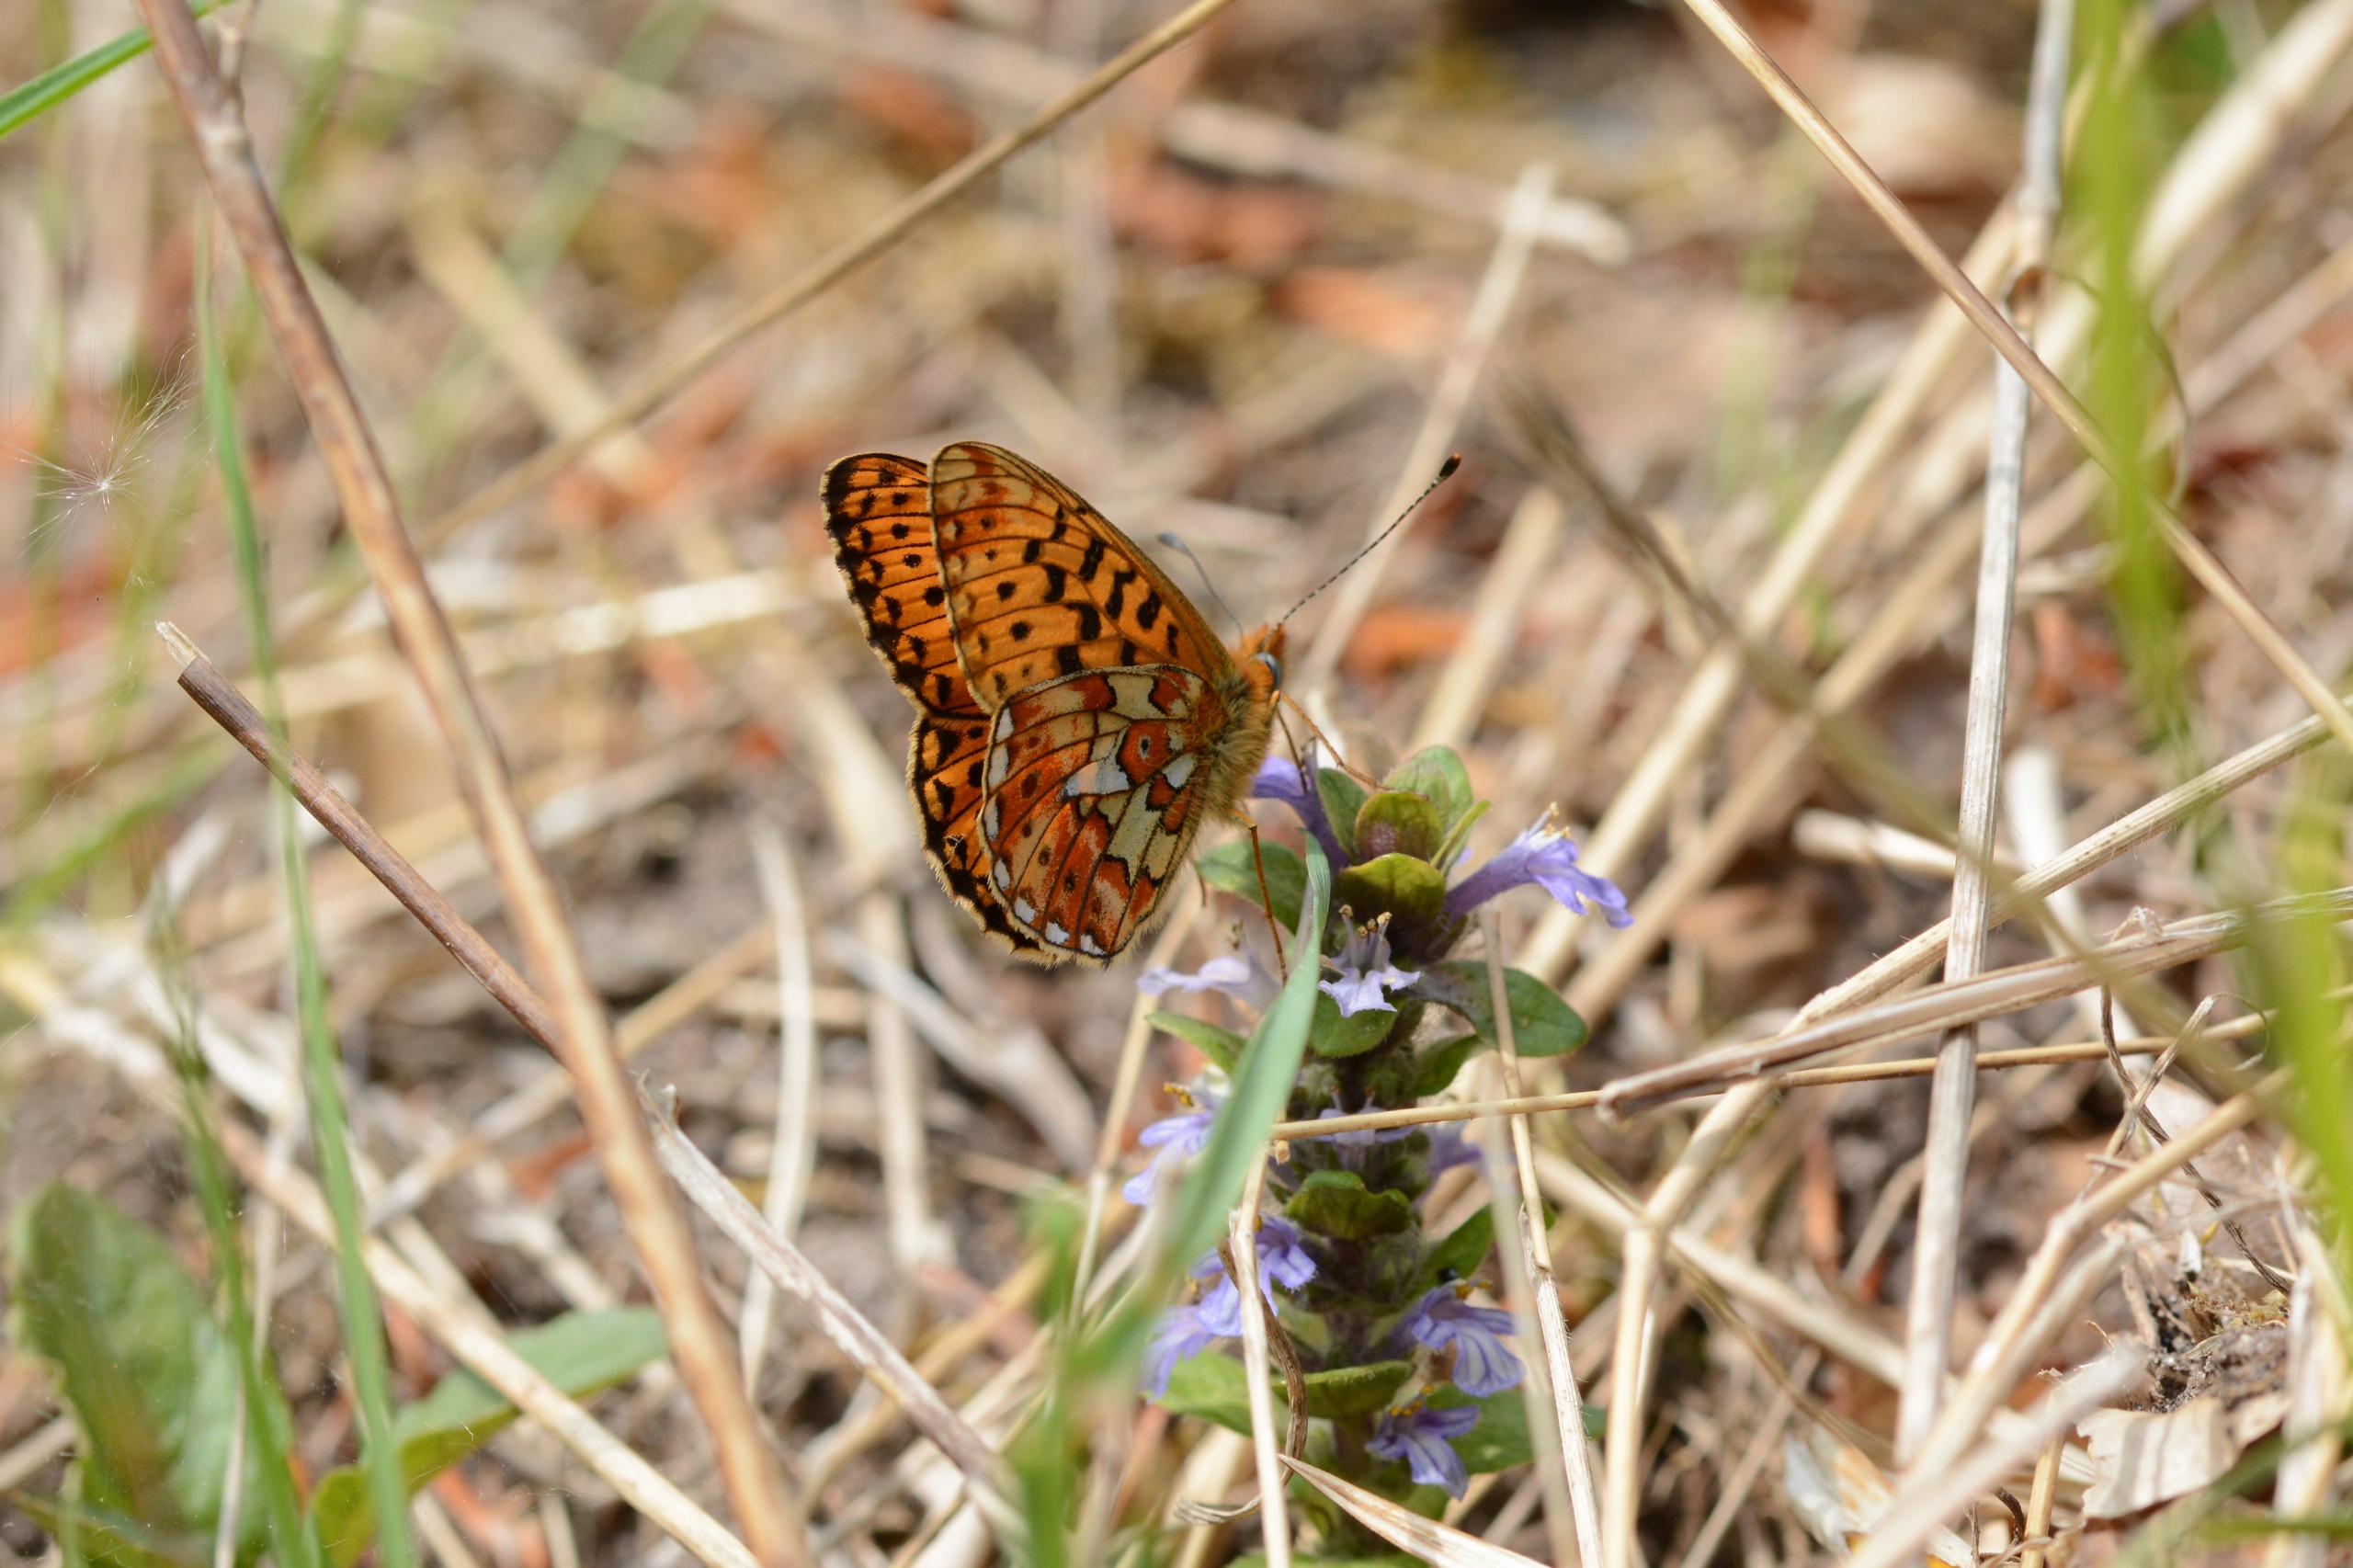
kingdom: Plantae
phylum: Tracheophyta
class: Magnoliopsida
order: Lamiales
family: Lamiaceae
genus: Ajuga
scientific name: Ajuga reptans
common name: Krybende læbeløs
